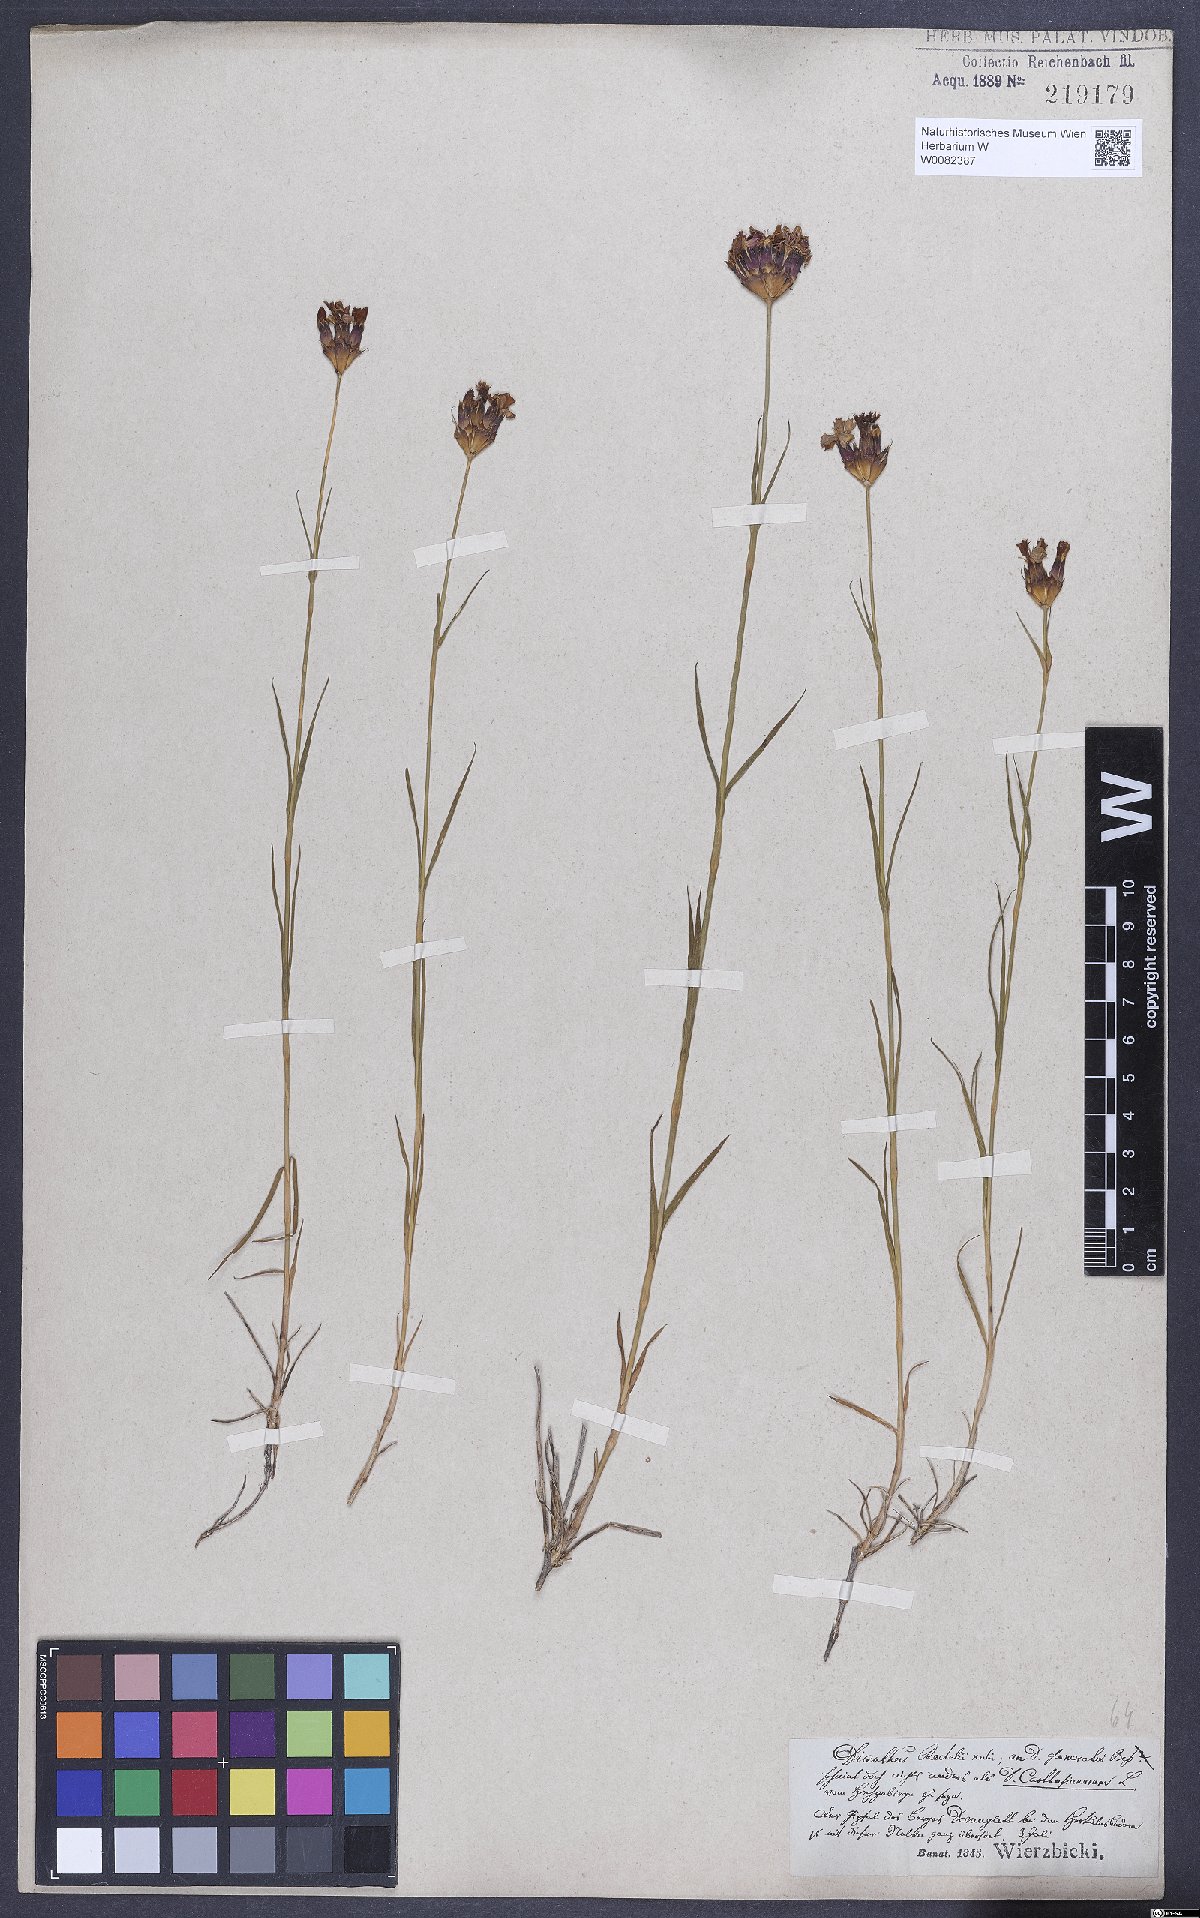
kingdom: Plantae
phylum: Tracheophyta
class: Magnoliopsida
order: Caryophyllales
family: Caryophyllaceae
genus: Dianthus
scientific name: Dianthus carthusianorum
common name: Carthusian pink
